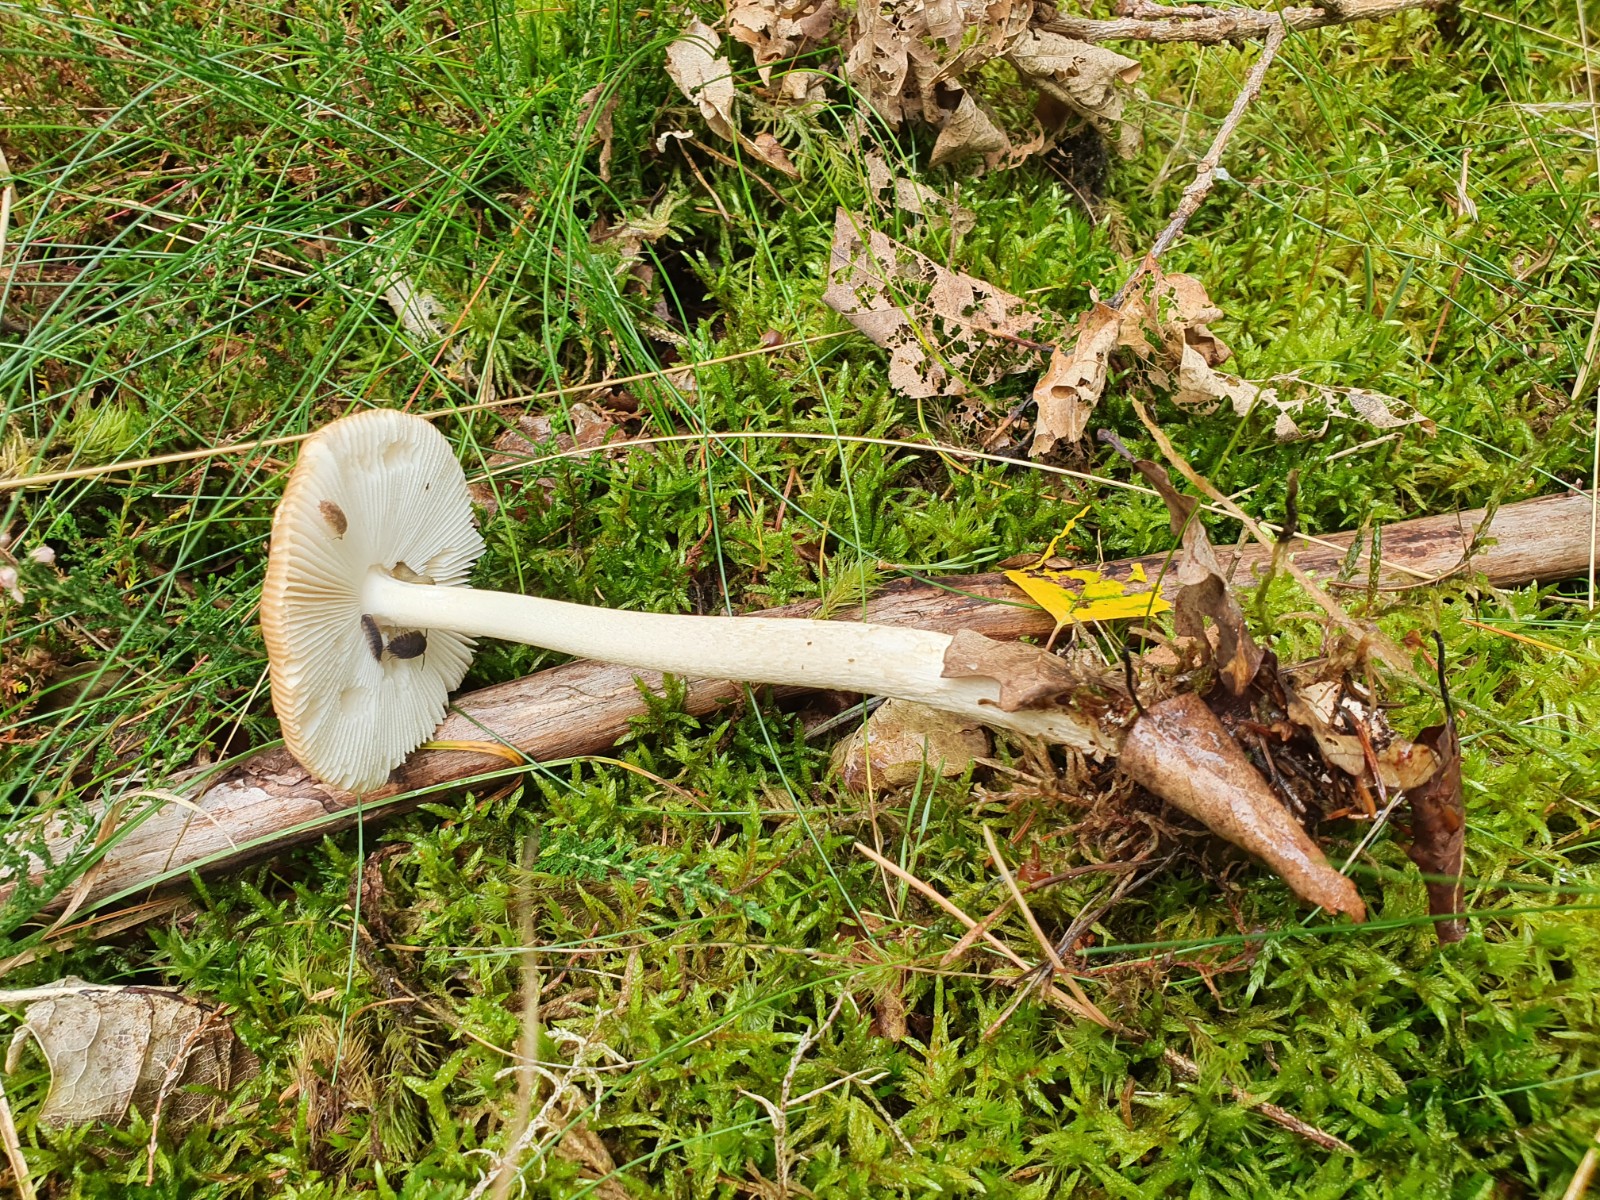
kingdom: Fungi
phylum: Basidiomycota
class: Agaricomycetes
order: Agaricales
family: Amanitaceae
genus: Amanita
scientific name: Amanita fulva
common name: brun kam-fluesvamp
